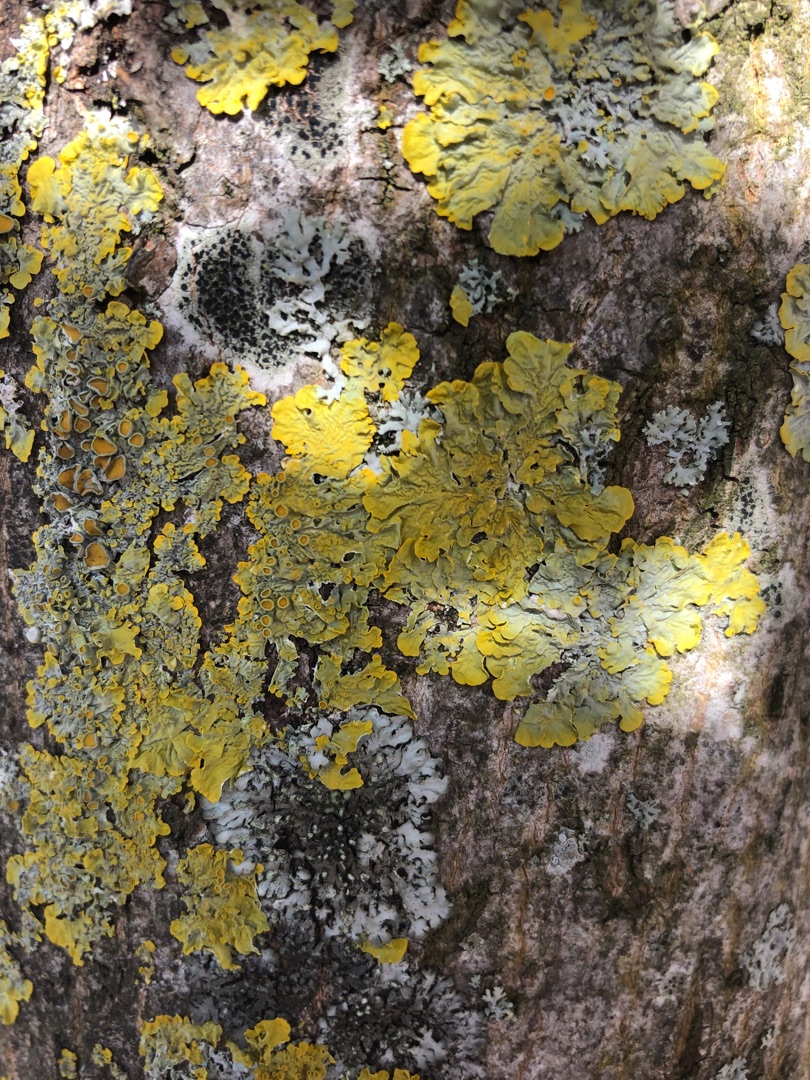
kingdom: Fungi
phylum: Ascomycota
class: Lecanoromycetes
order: Teloschistales
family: Teloschistaceae
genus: Xanthoria
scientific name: Xanthoria parietina
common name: Almindelig væggelav
